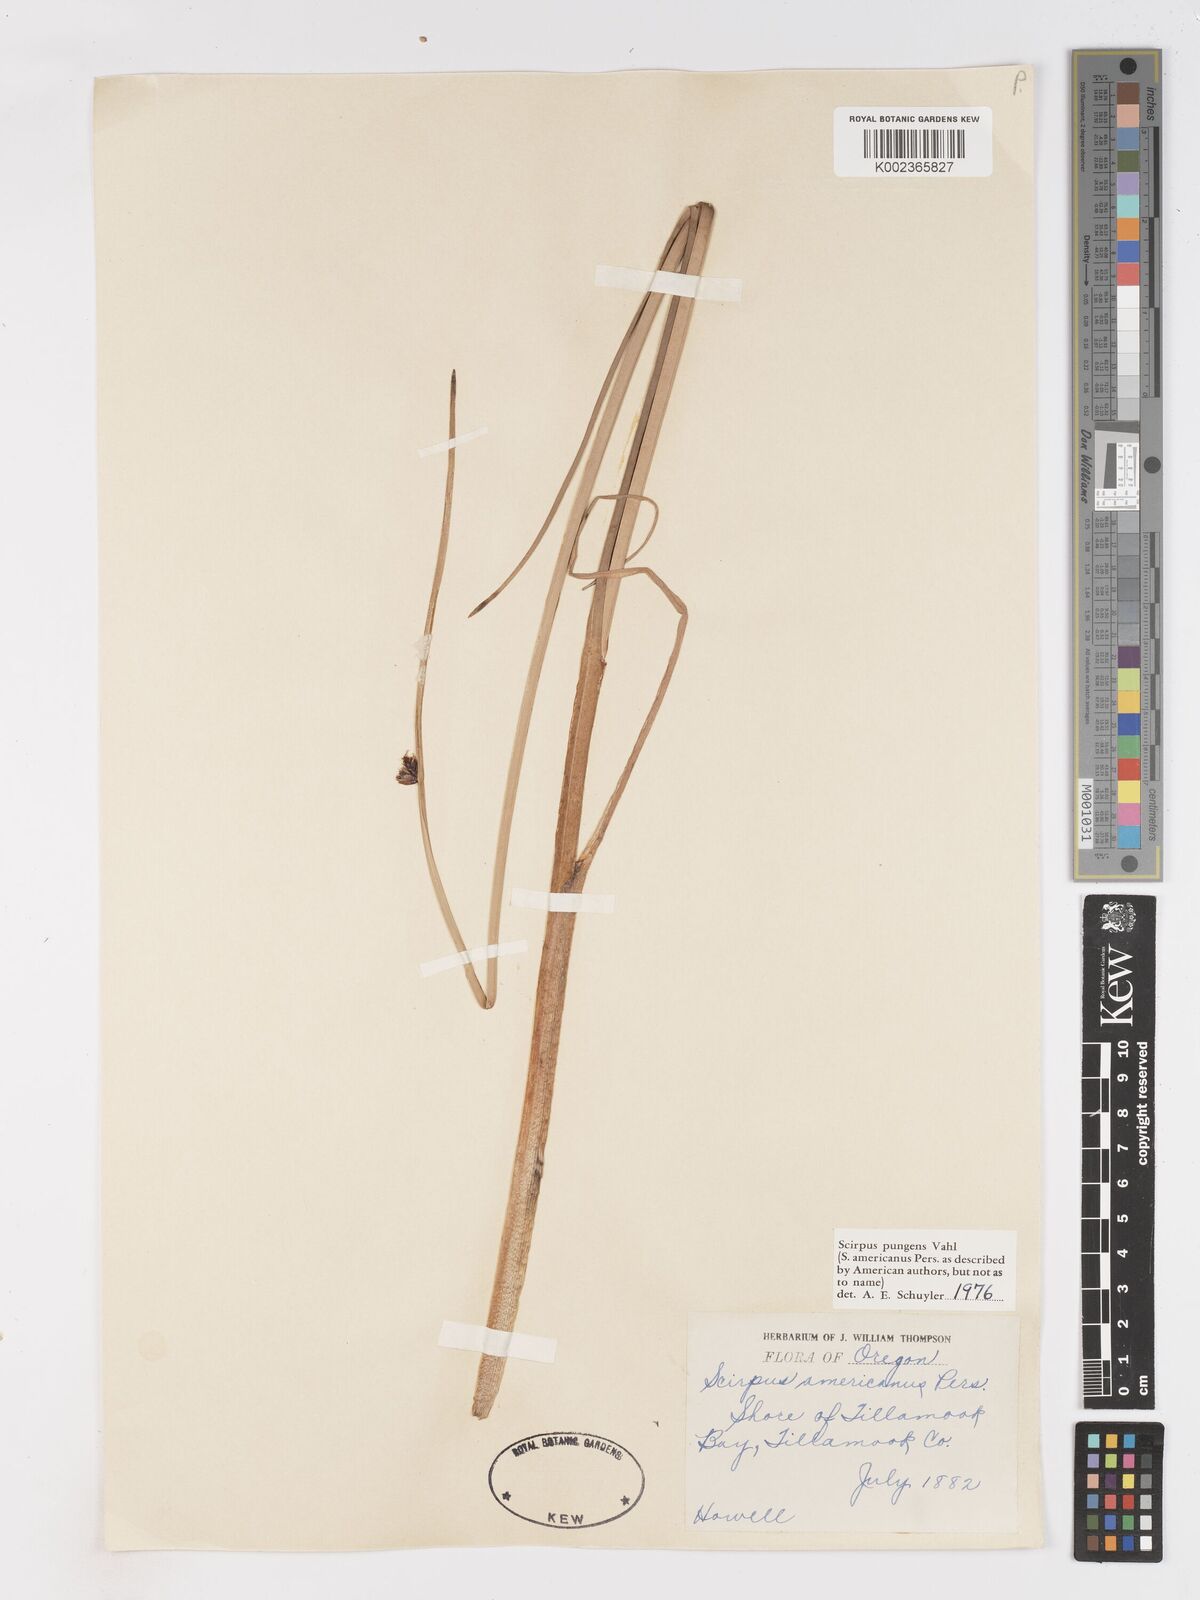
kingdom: Plantae
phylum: Tracheophyta
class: Liliopsida
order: Poales
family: Cyperaceae
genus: Schoenoplectus
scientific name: Schoenoplectus pungens
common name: Sharp club-rush
